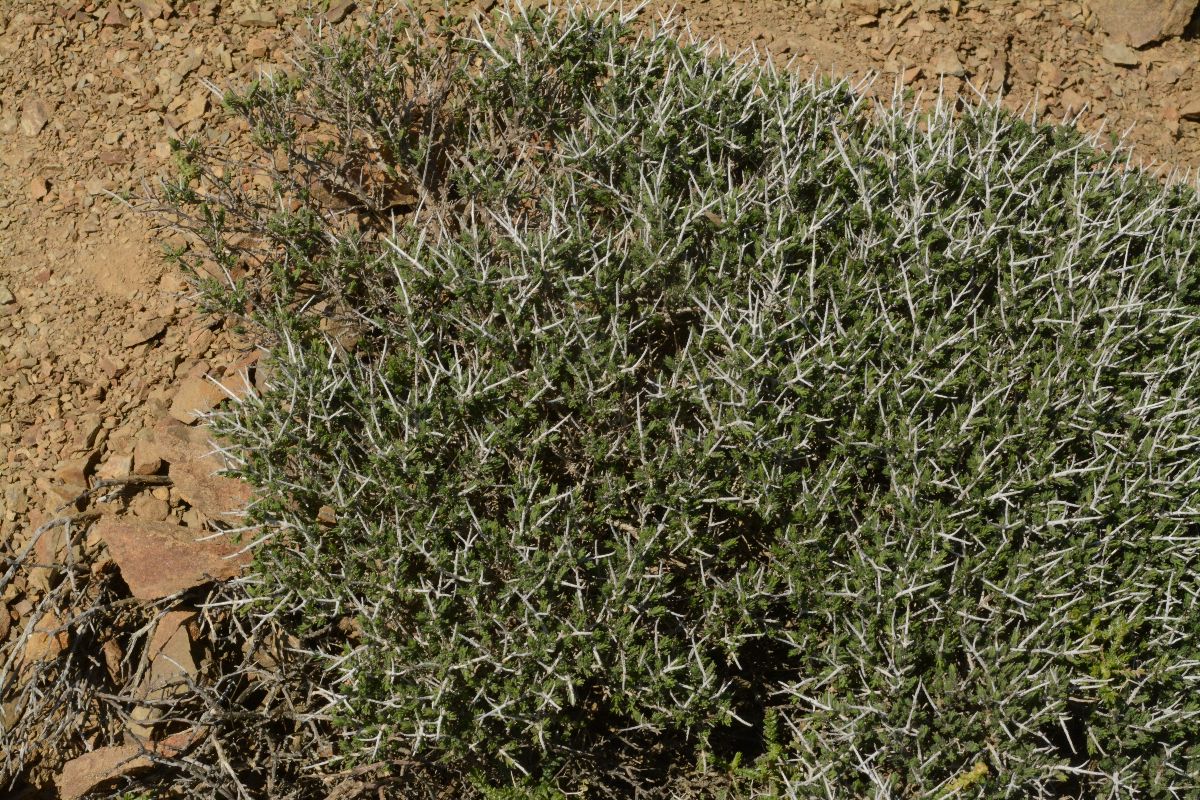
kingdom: Plantae
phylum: Tracheophyta
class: Magnoliopsida
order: Lamiales
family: Lamiaceae
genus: Thymbra
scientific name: Thymbra capitata
